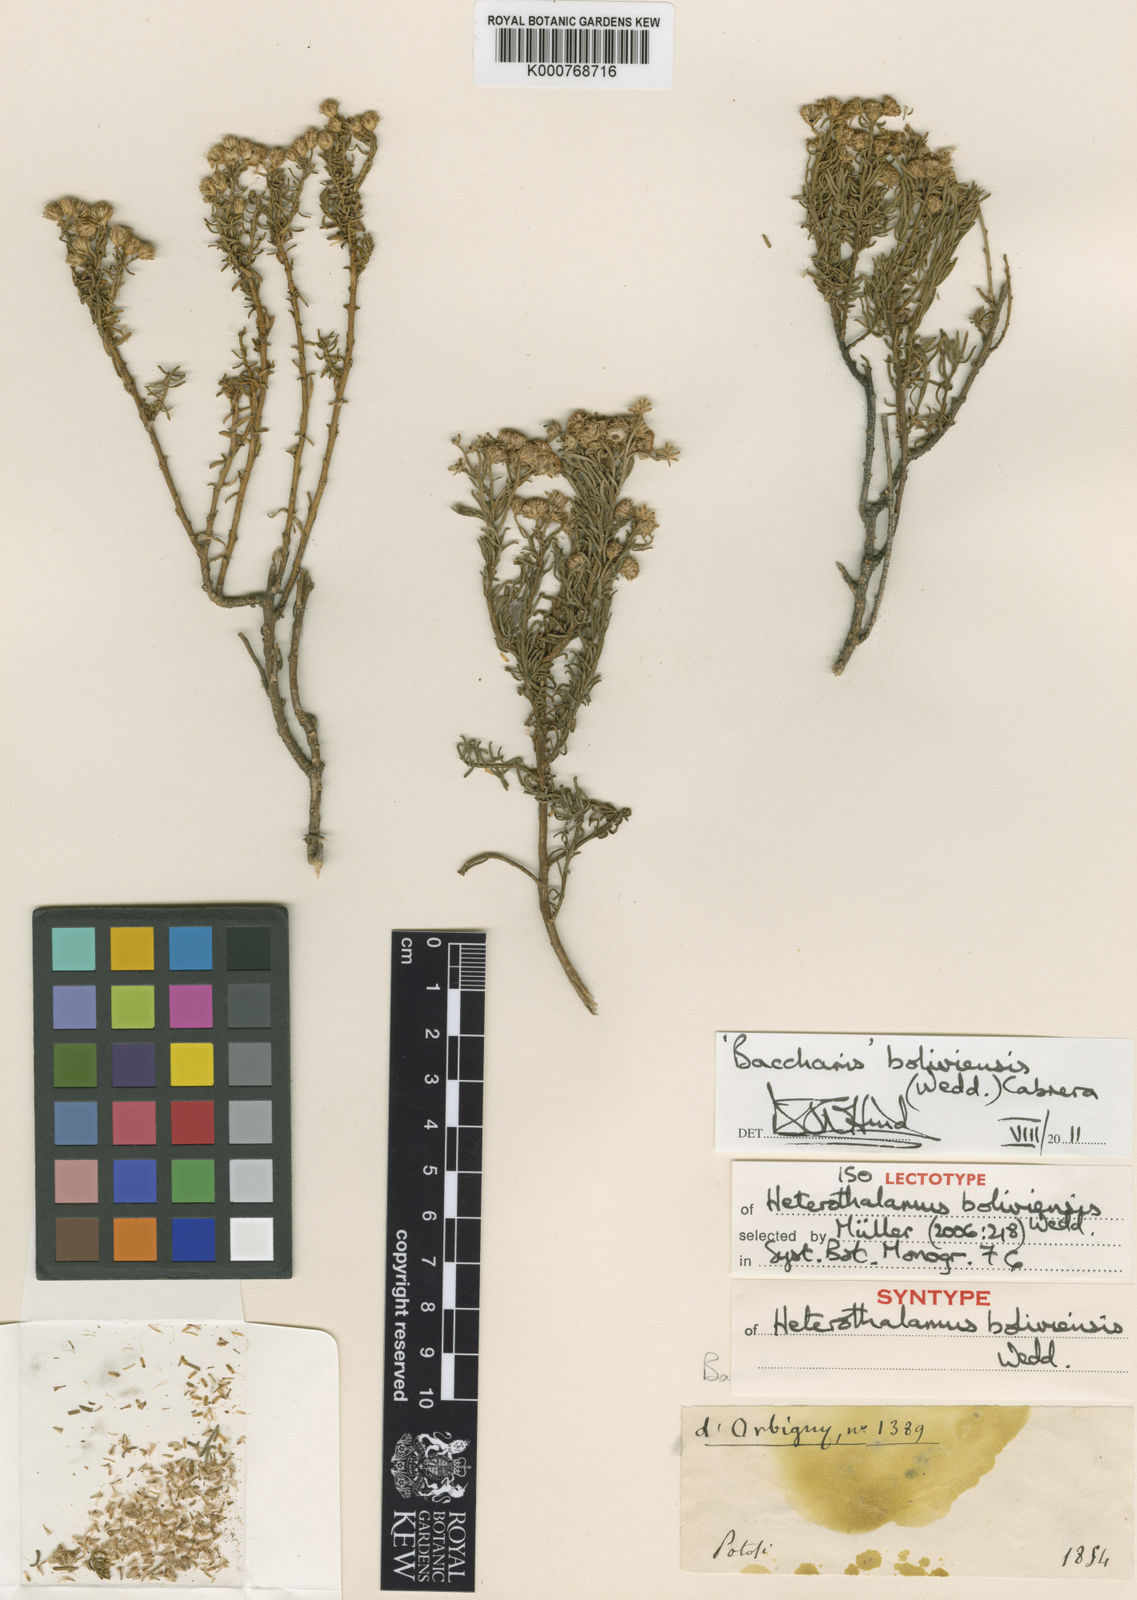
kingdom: Plantae
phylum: Tracheophyta
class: Magnoliopsida
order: Asterales
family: Asteraceae
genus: Baccharis
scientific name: Baccharis bolivensis
